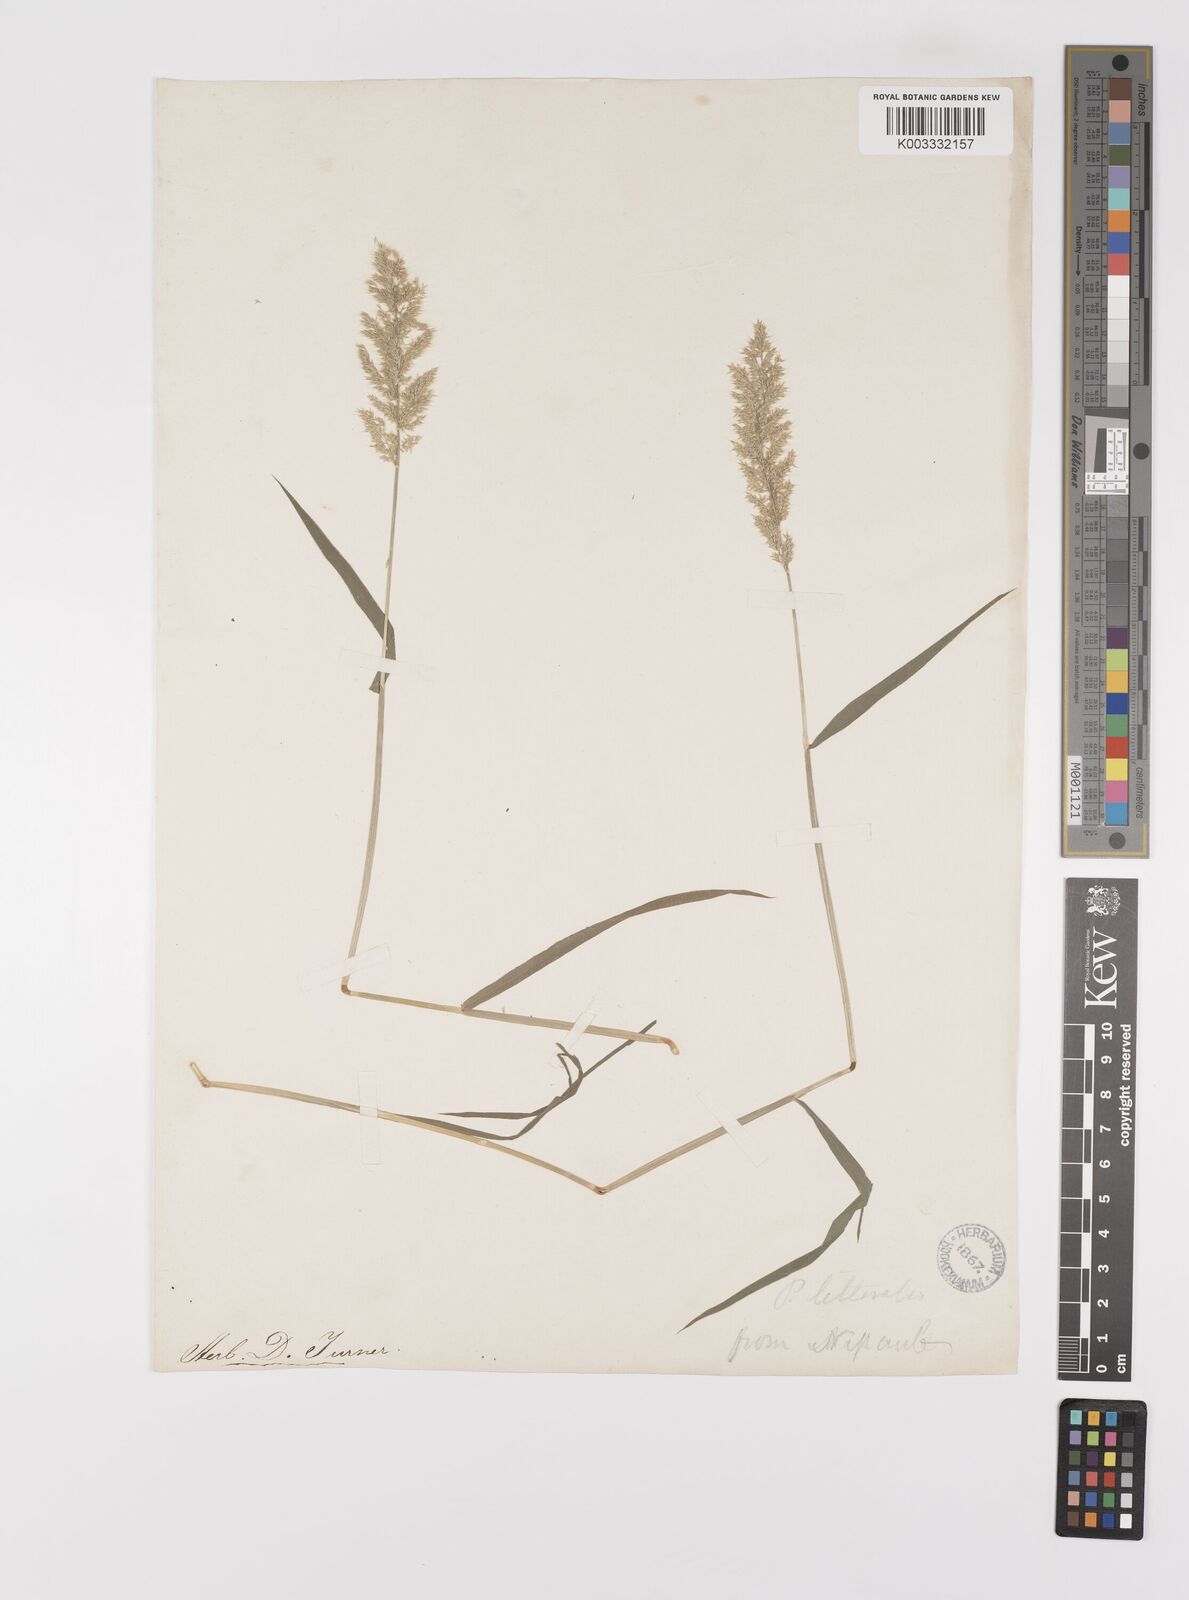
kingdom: Plantae
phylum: Tracheophyta
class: Liliopsida
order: Poales
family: Poaceae
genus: Polypogon
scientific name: Polypogon fugax
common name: Asia minor bluegrass
